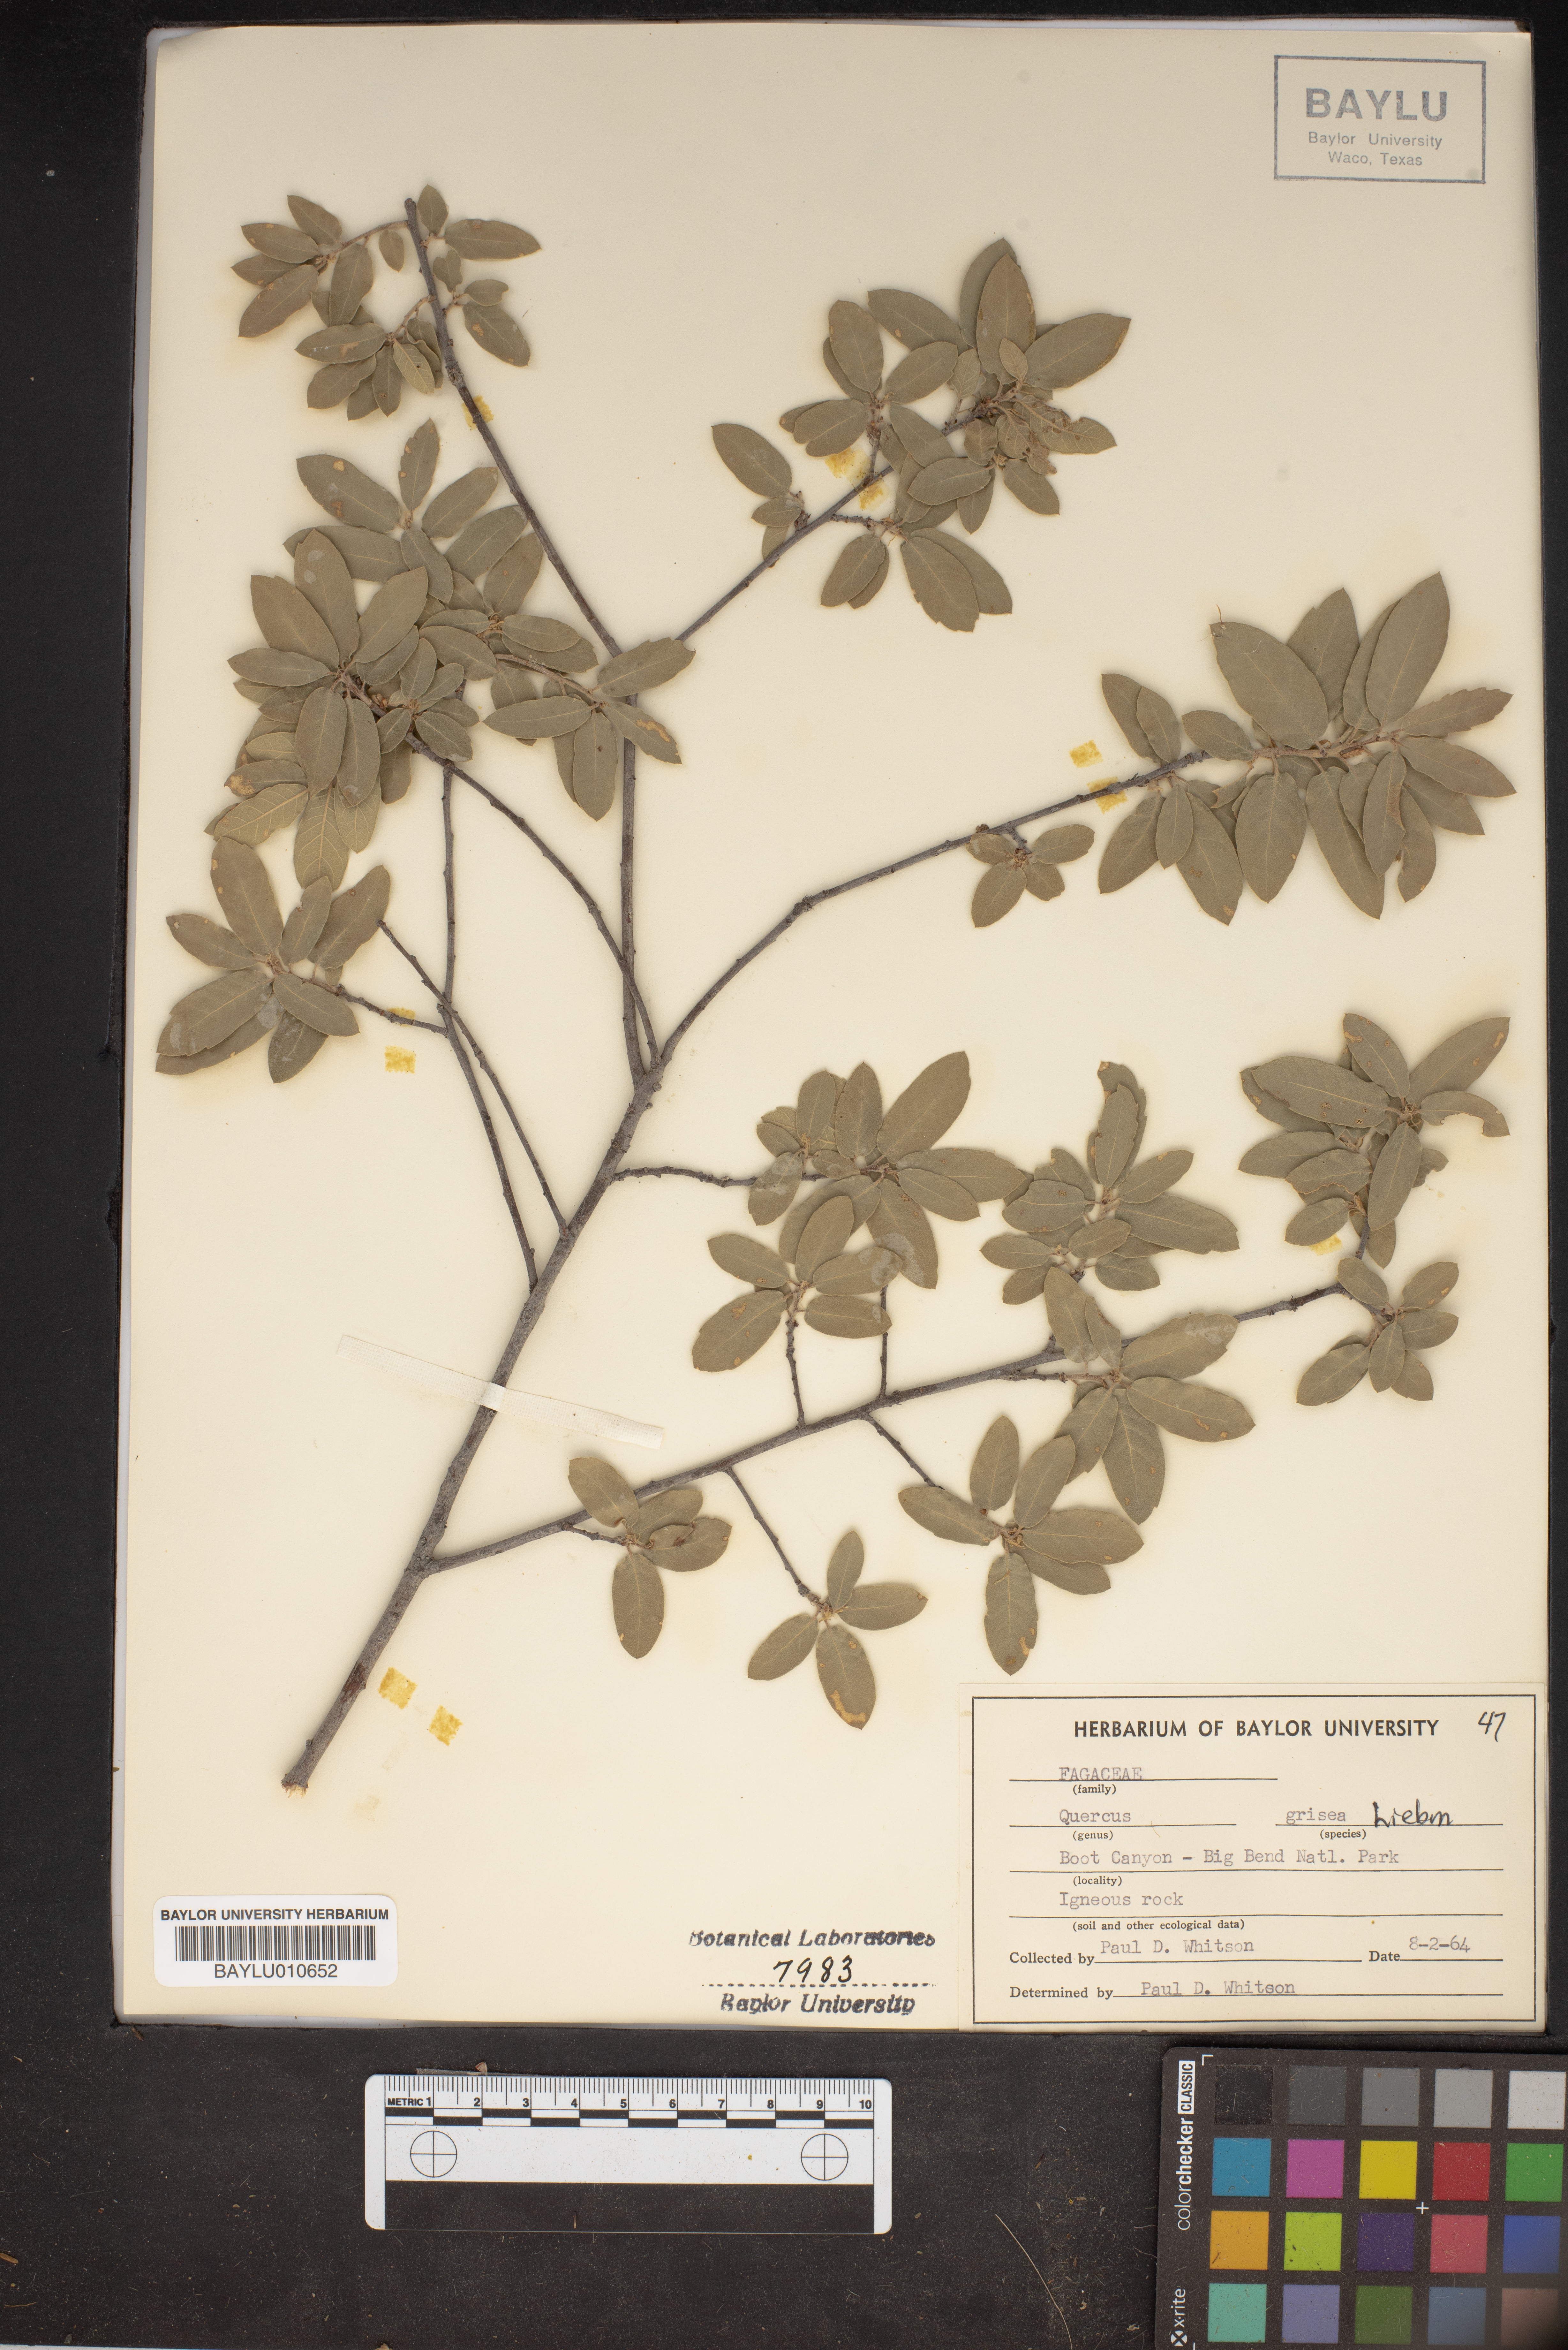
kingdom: Plantae
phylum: Tracheophyta
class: Magnoliopsida
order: Fagales
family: Fagaceae
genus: Quercus
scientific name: Quercus grisea
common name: Gray oak
